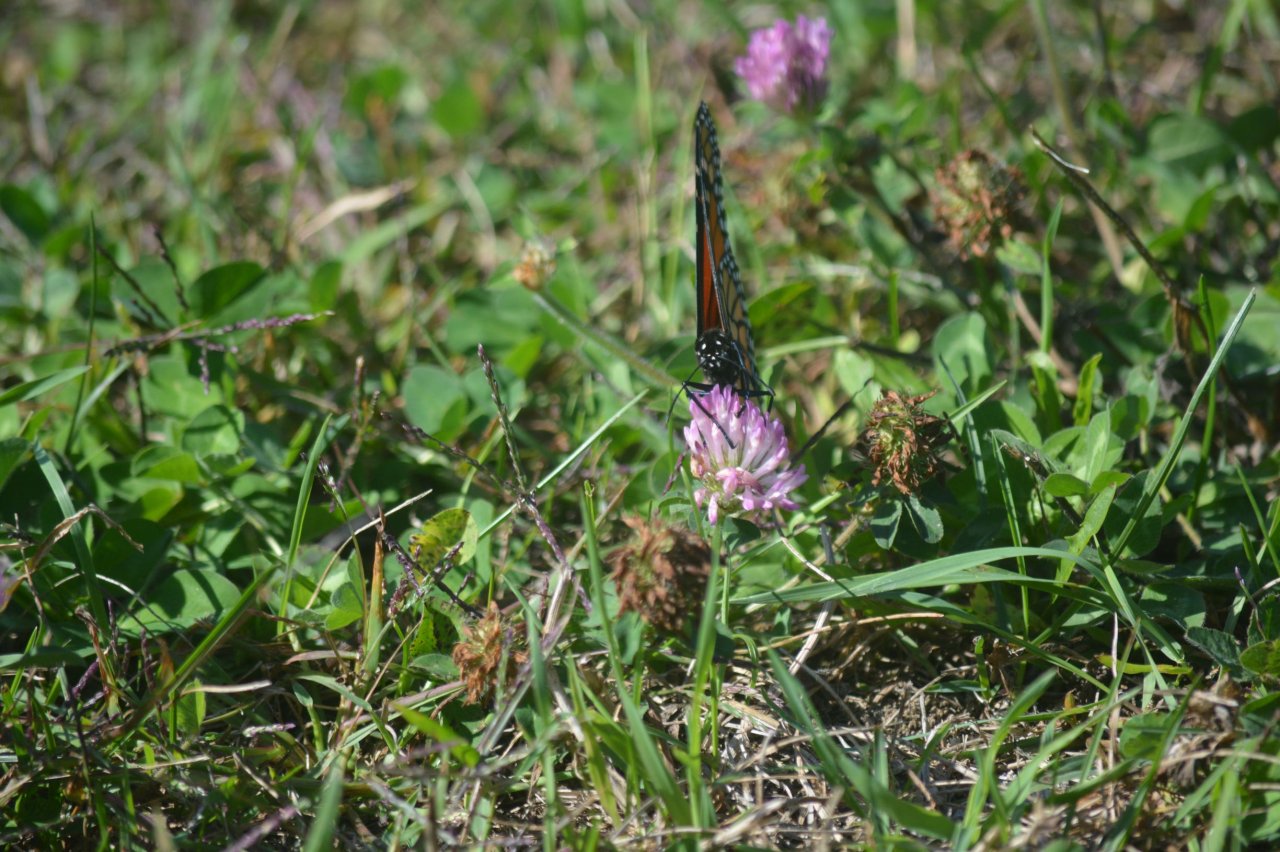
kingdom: Animalia
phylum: Arthropoda
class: Insecta
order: Lepidoptera
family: Nymphalidae
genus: Danaus
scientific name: Danaus plexippus
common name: Monarch
